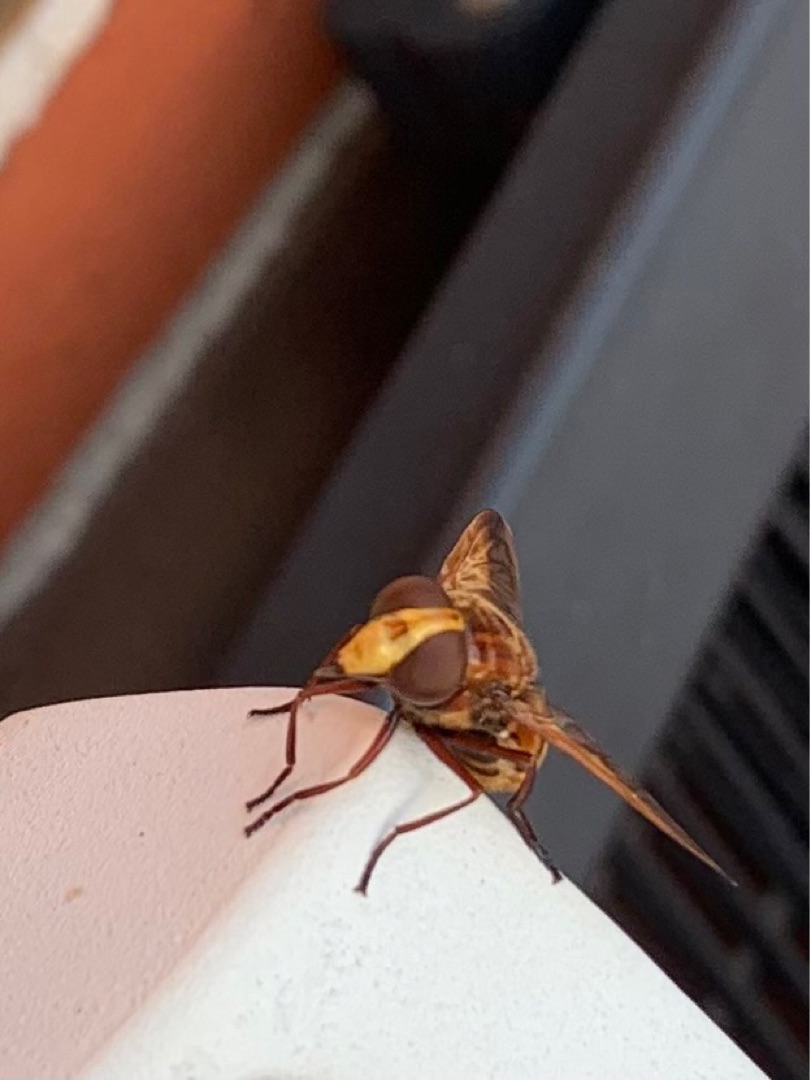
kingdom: Animalia
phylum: Arthropoda
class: Insecta
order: Diptera
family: Syrphidae
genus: Volucella
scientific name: Volucella zonaria
